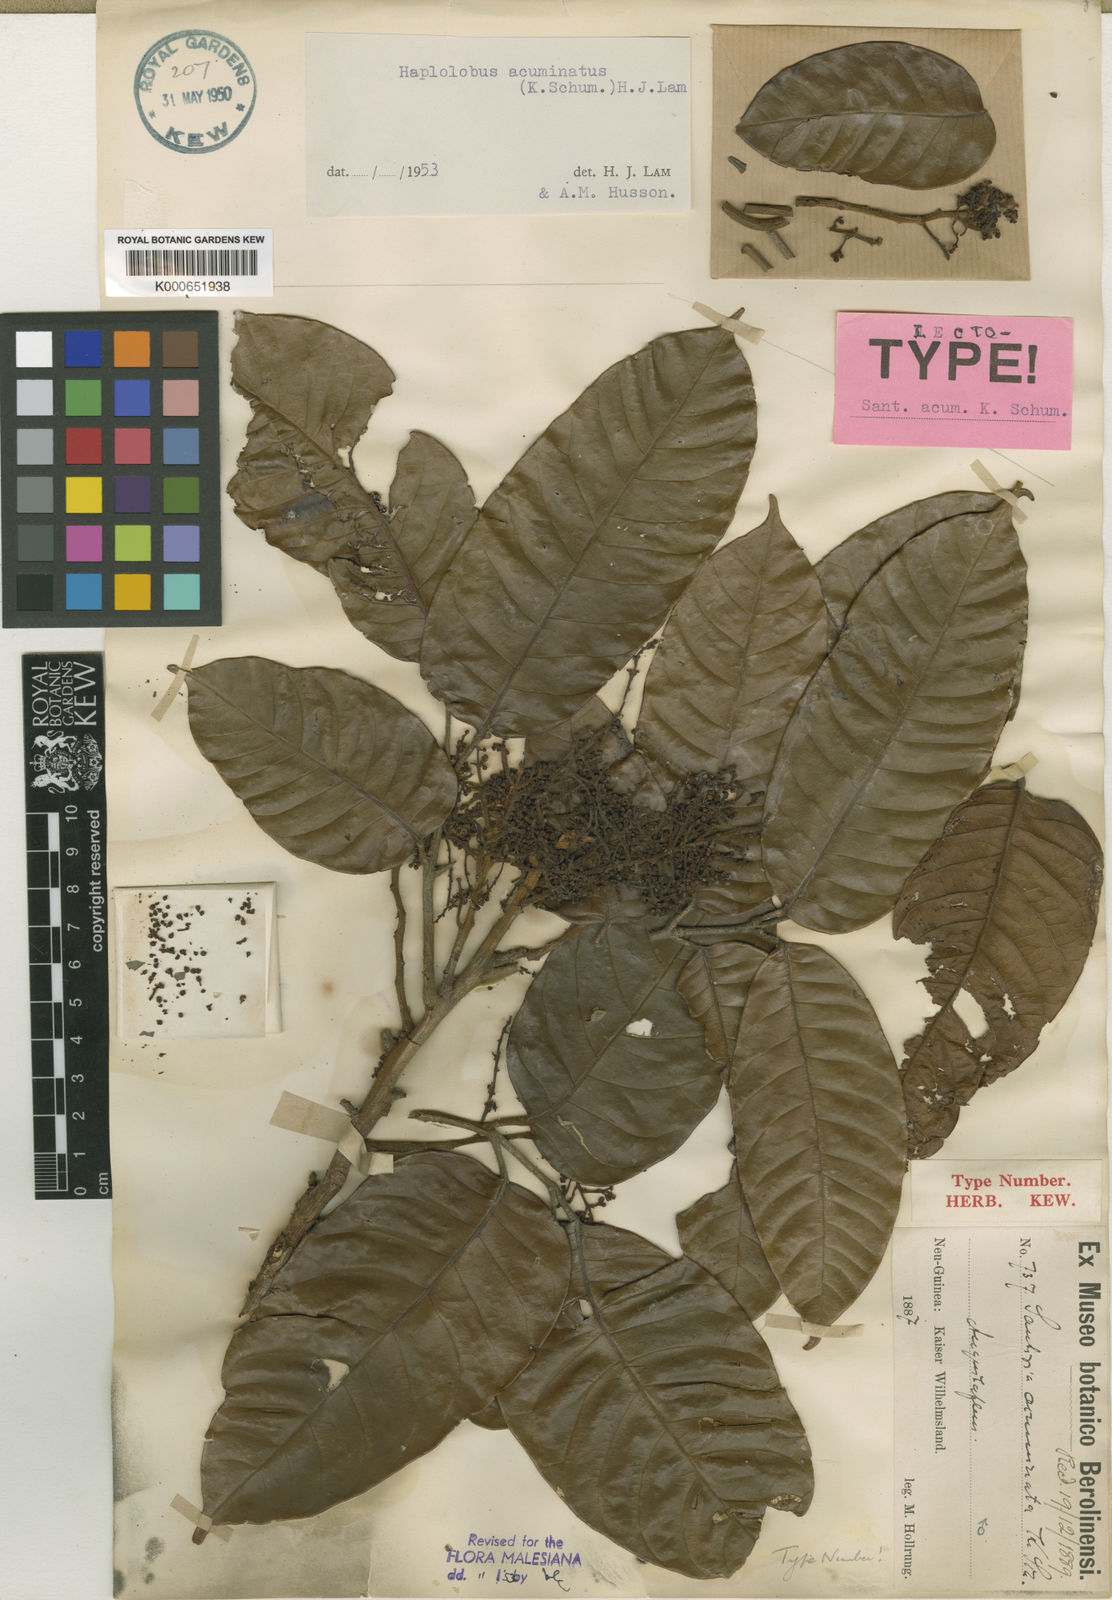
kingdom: Plantae
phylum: Tracheophyta
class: Magnoliopsida
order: Sapindales
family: Burseraceae
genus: Haplolobus
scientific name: Haplolobus acuminatus
